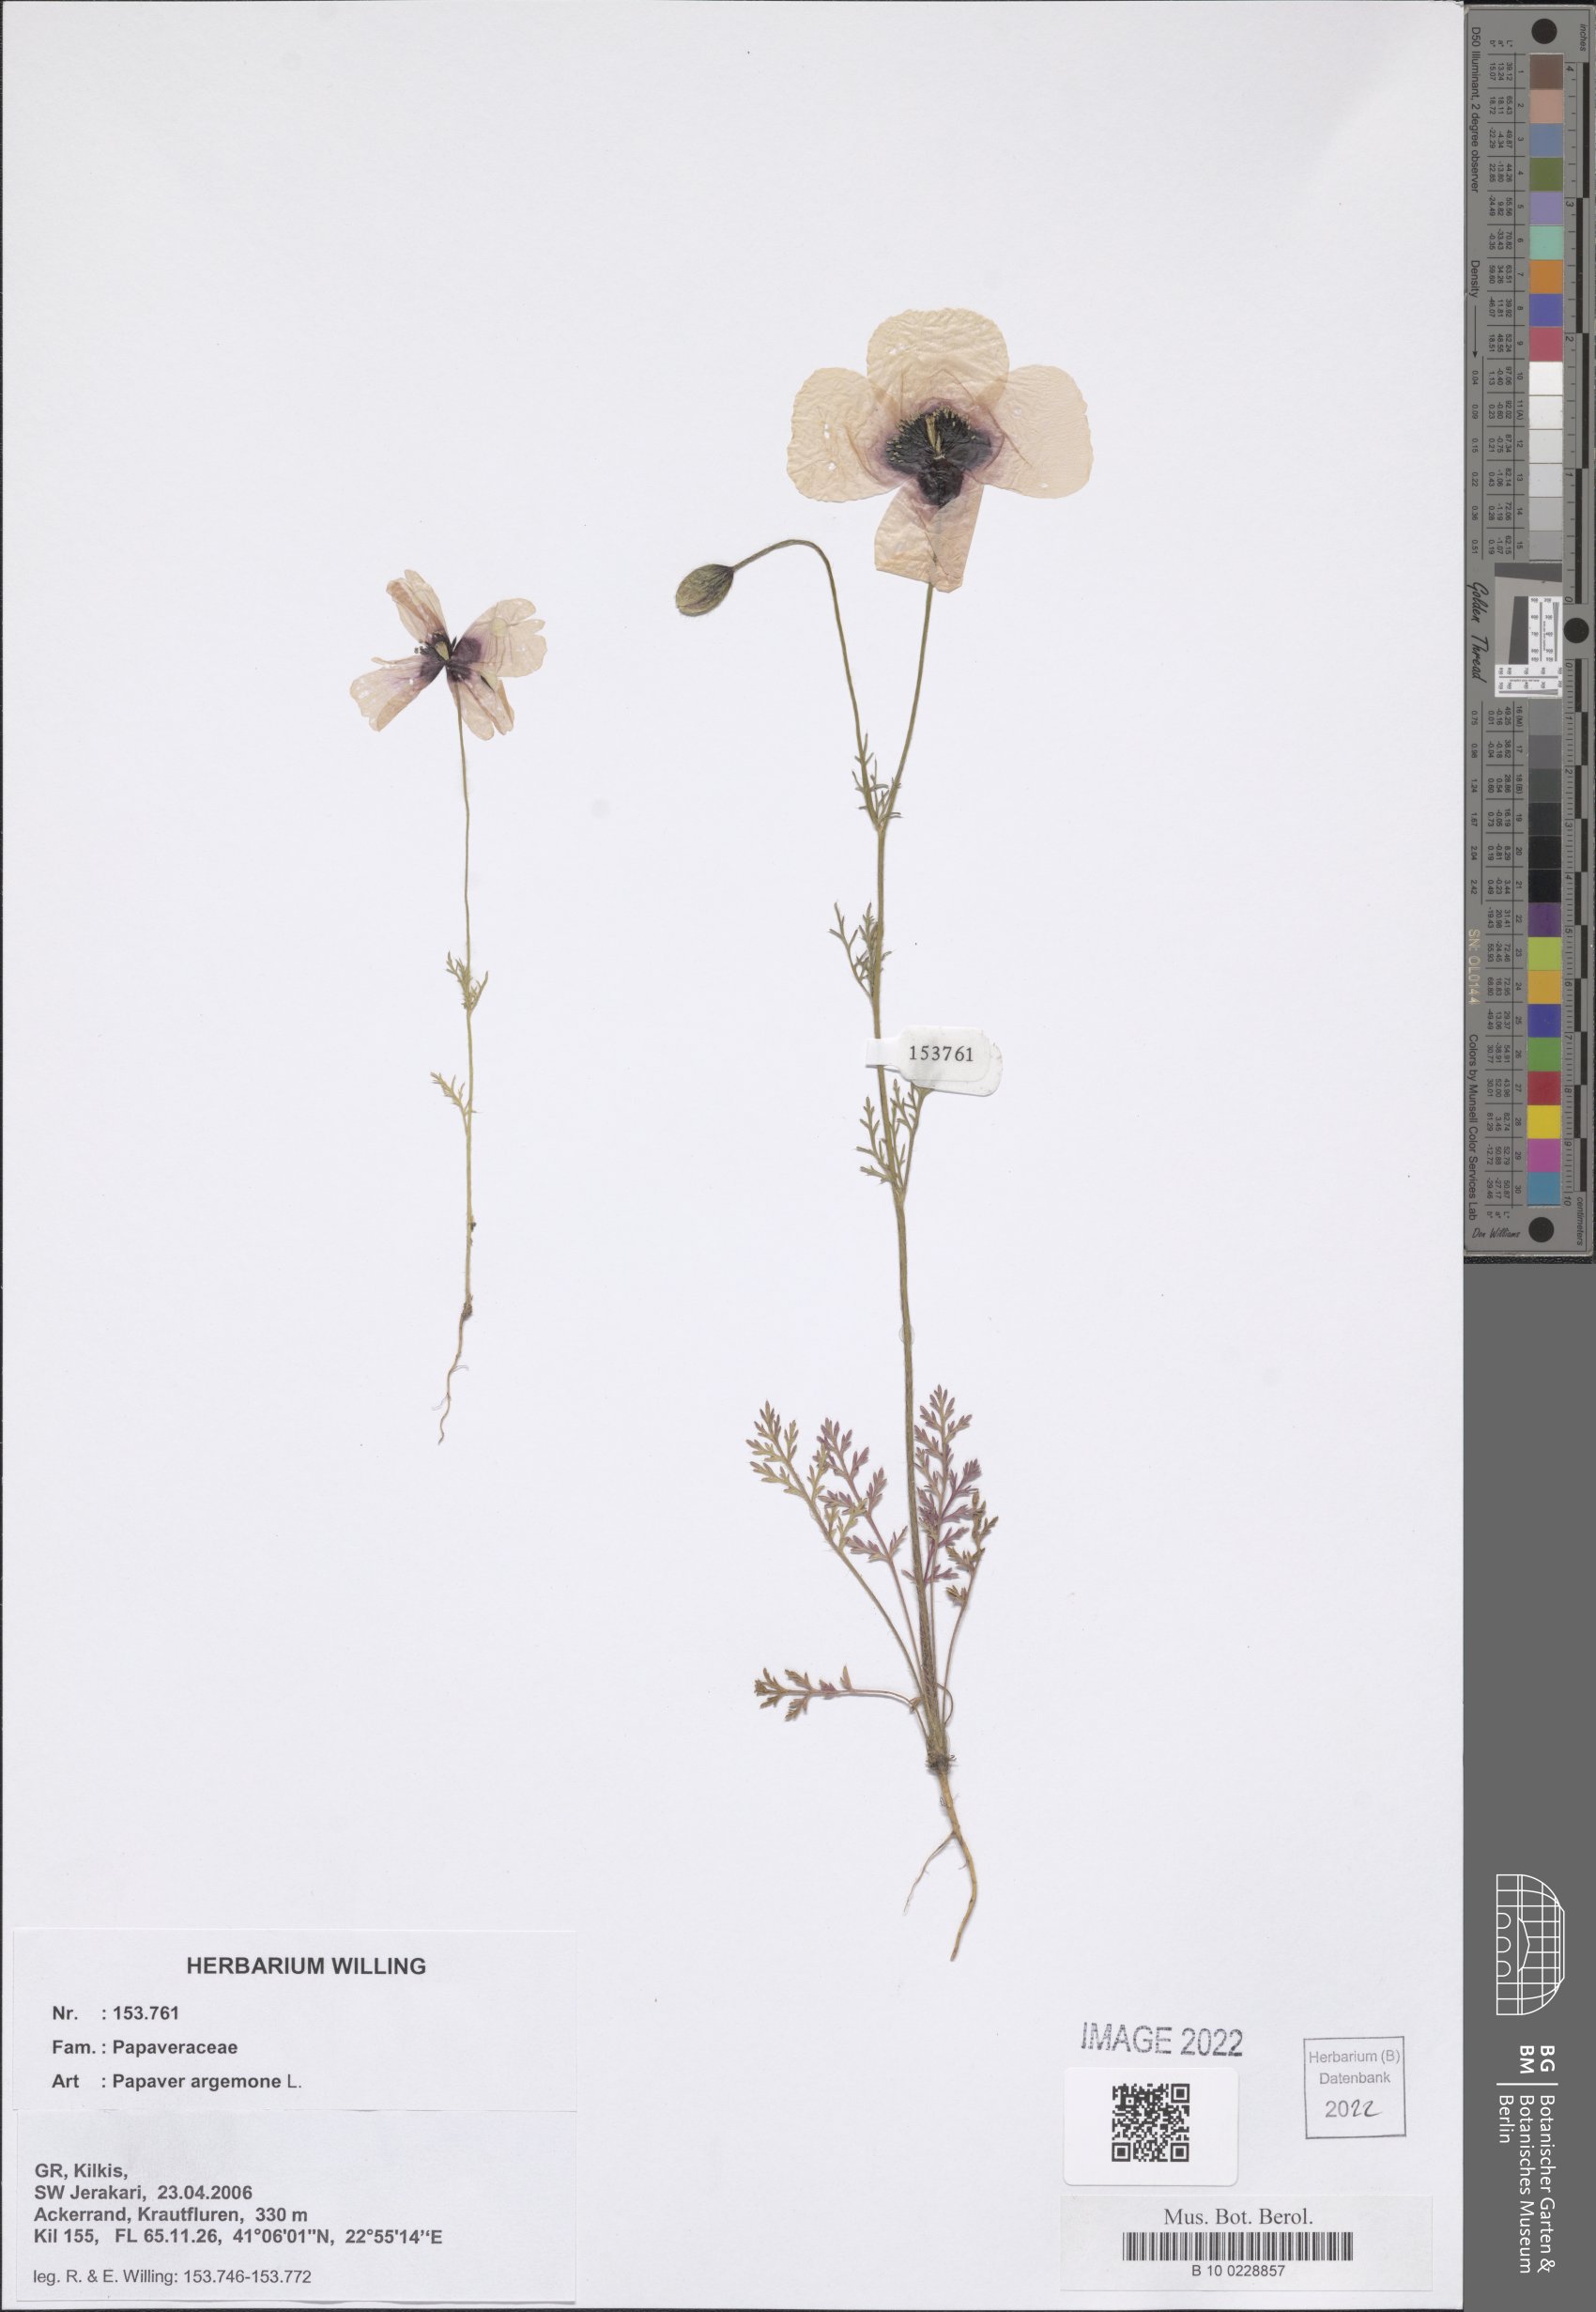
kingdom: Plantae
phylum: Tracheophyta
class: Magnoliopsida
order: Ranunculales
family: Papaveraceae
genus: Roemeria
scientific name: Roemeria argemone
